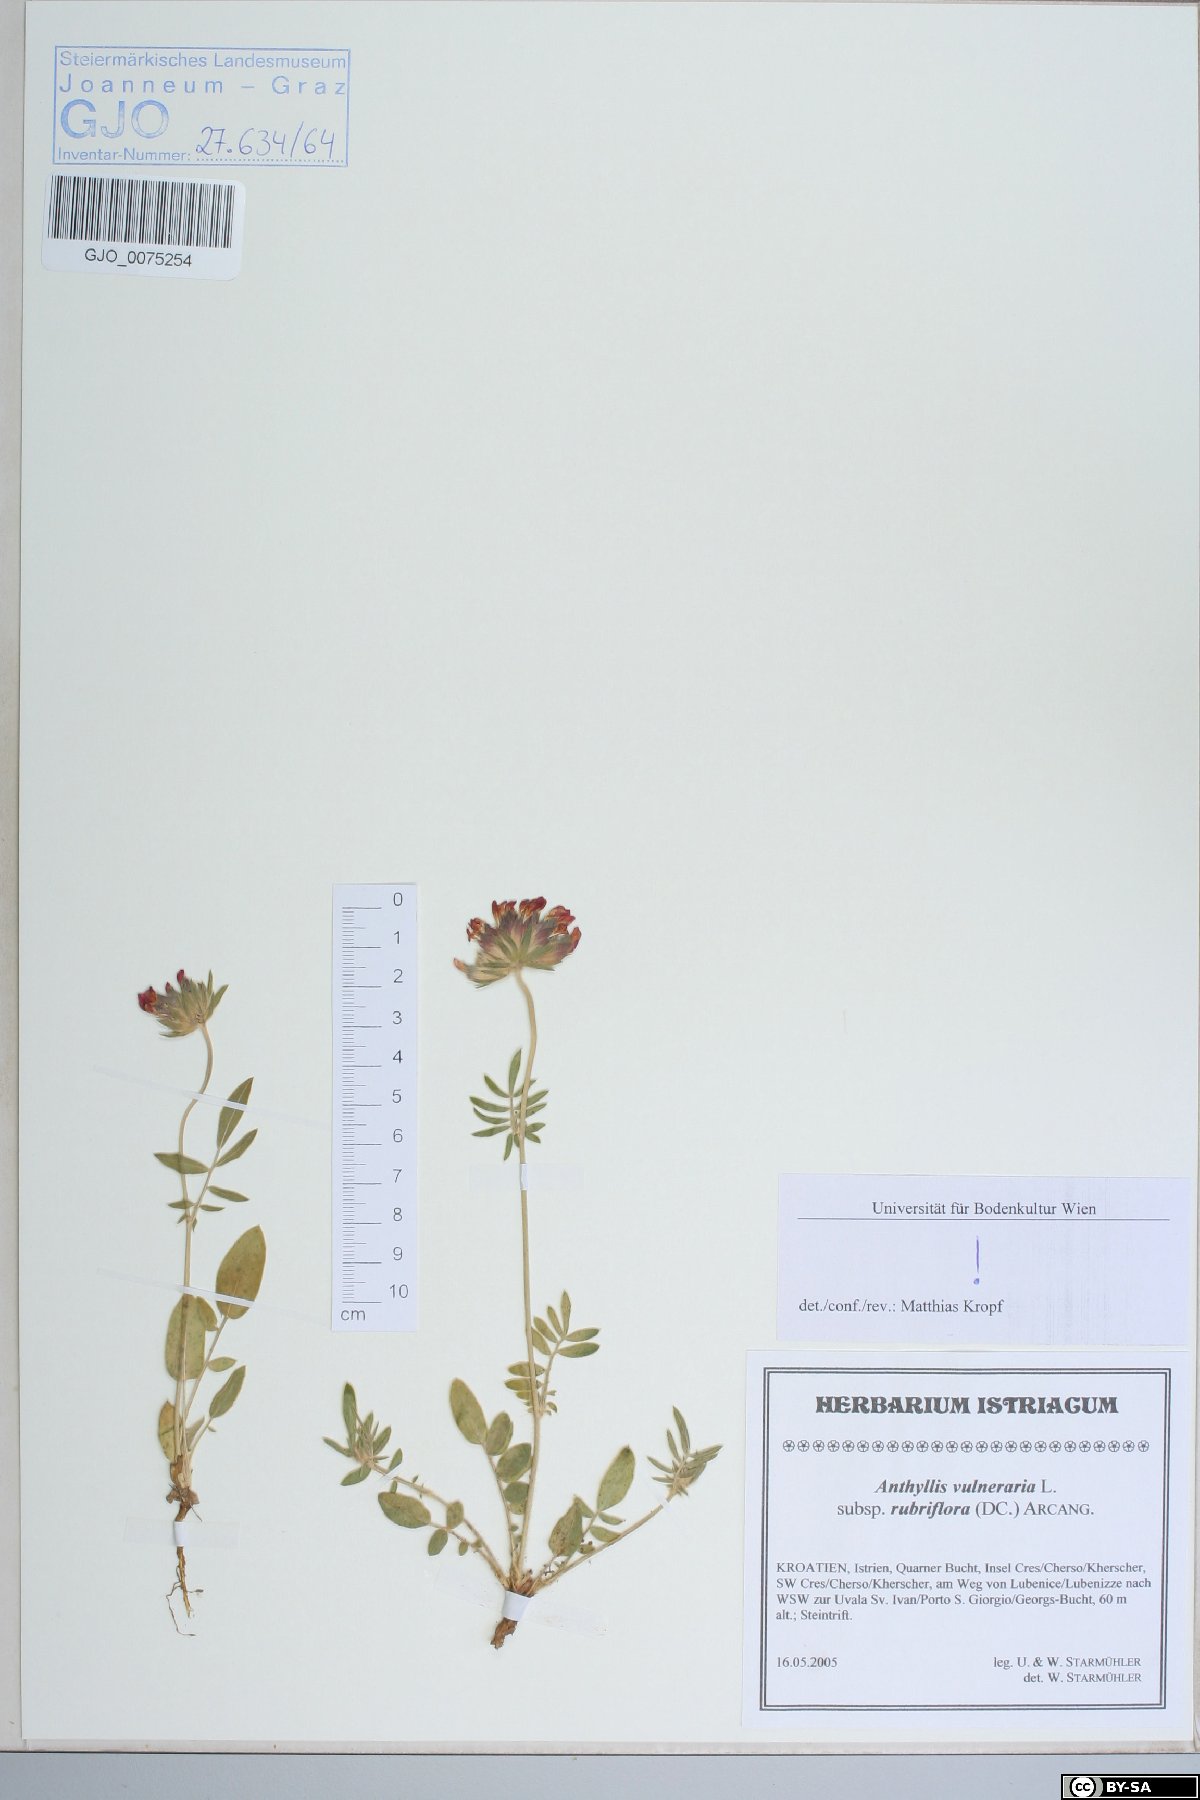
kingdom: Plantae
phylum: Tracheophyta
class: Magnoliopsida
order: Fabales
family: Fabaceae
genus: Anthyllis
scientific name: Anthyllis vulneraria
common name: Kidney vetch
